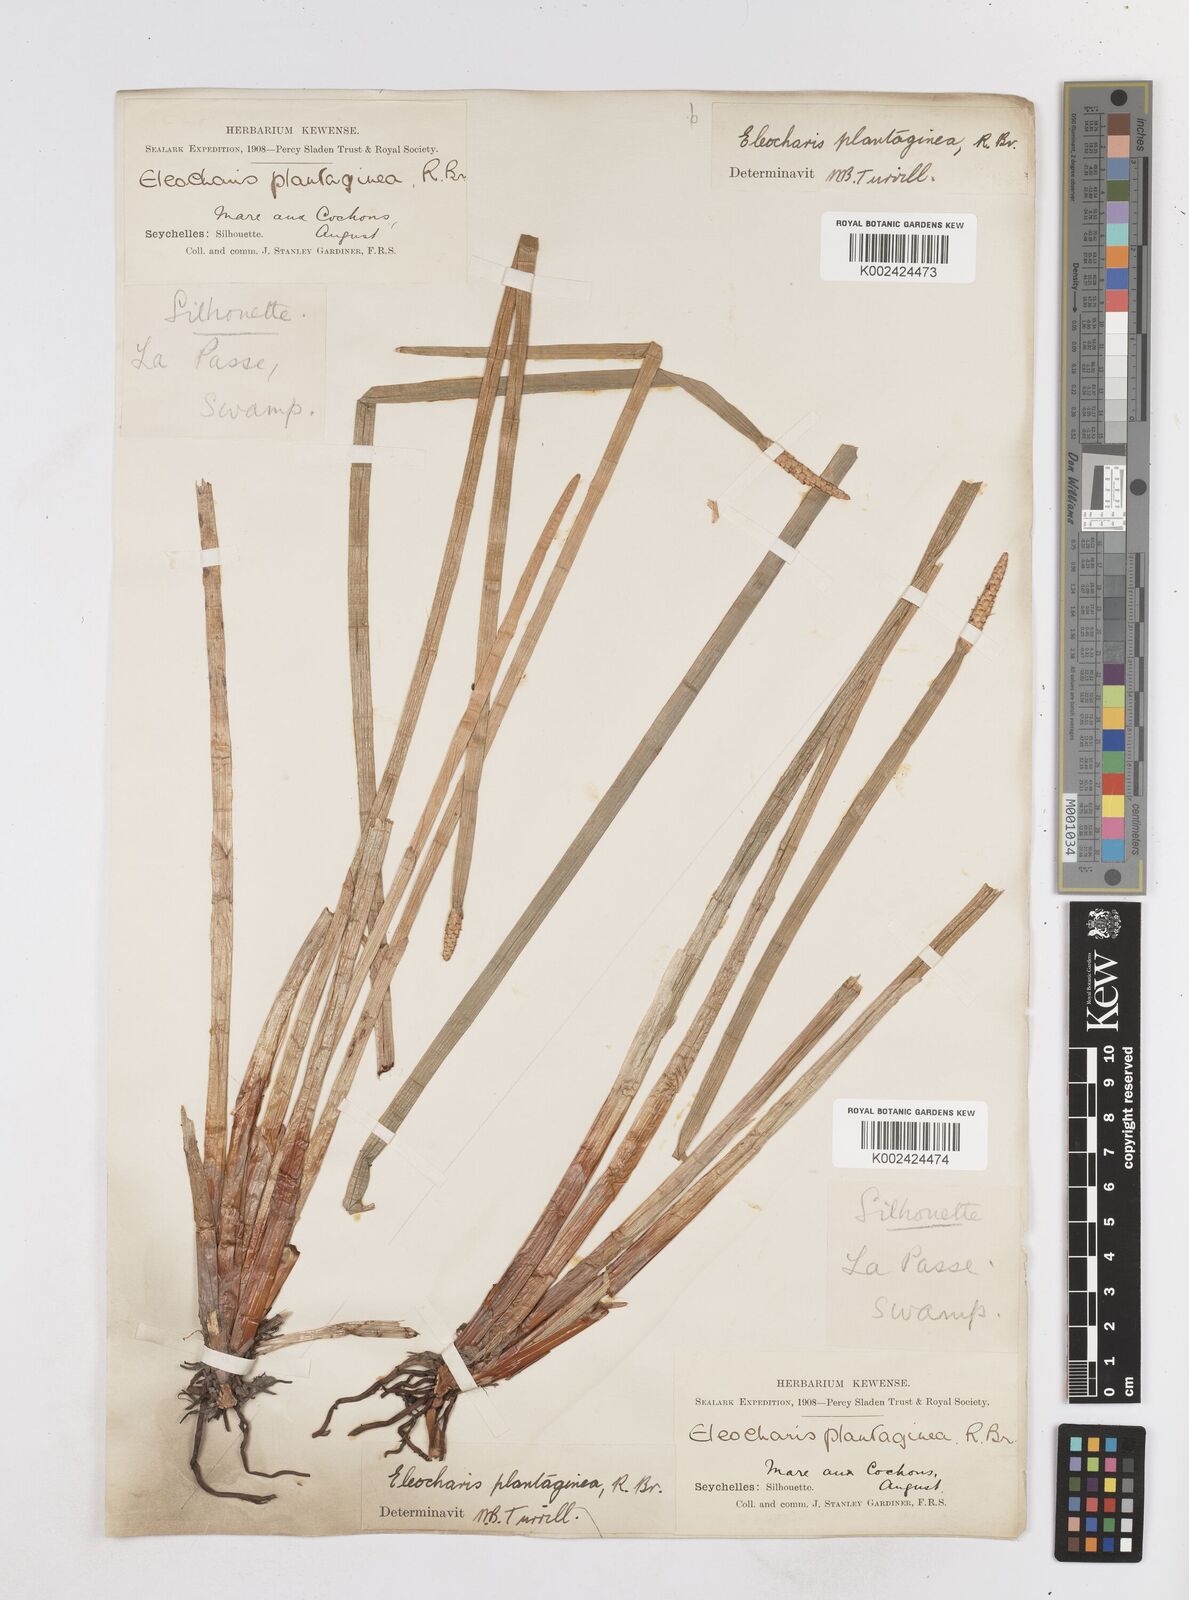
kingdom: Plantae
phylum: Tracheophyta
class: Liliopsida
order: Poales
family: Cyperaceae
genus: Eleocharis
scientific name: Eleocharis dulcis
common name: Chinese water chestnut
